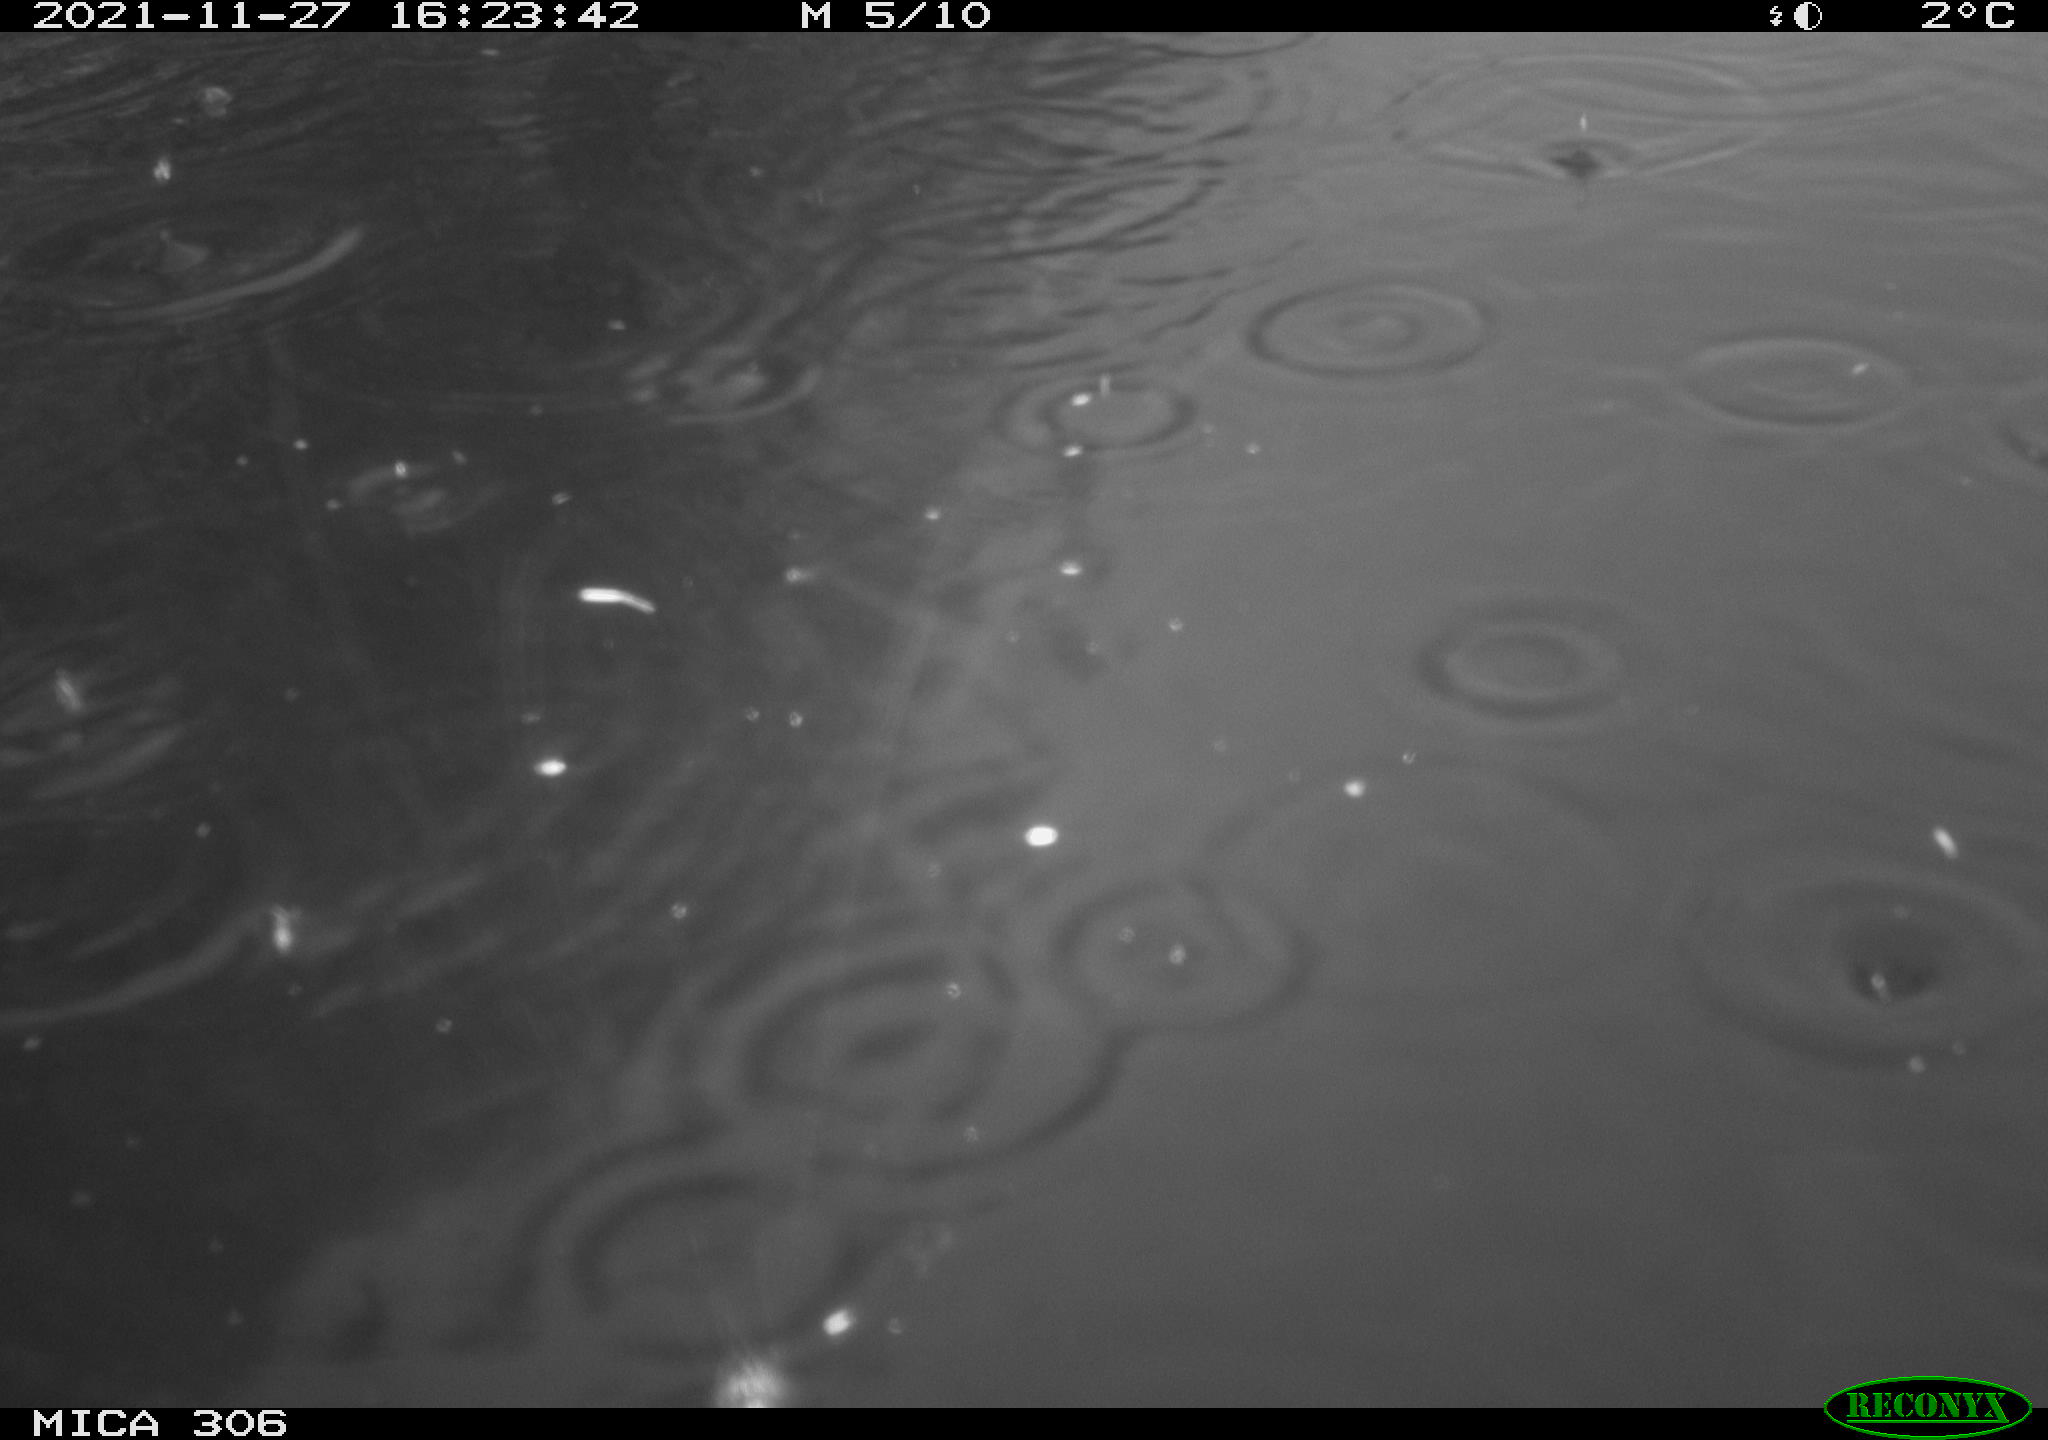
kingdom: Animalia
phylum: Chordata
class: Aves
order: Gruiformes
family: Rallidae
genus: Fulica
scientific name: Fulica atra
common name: Eurasian coot
